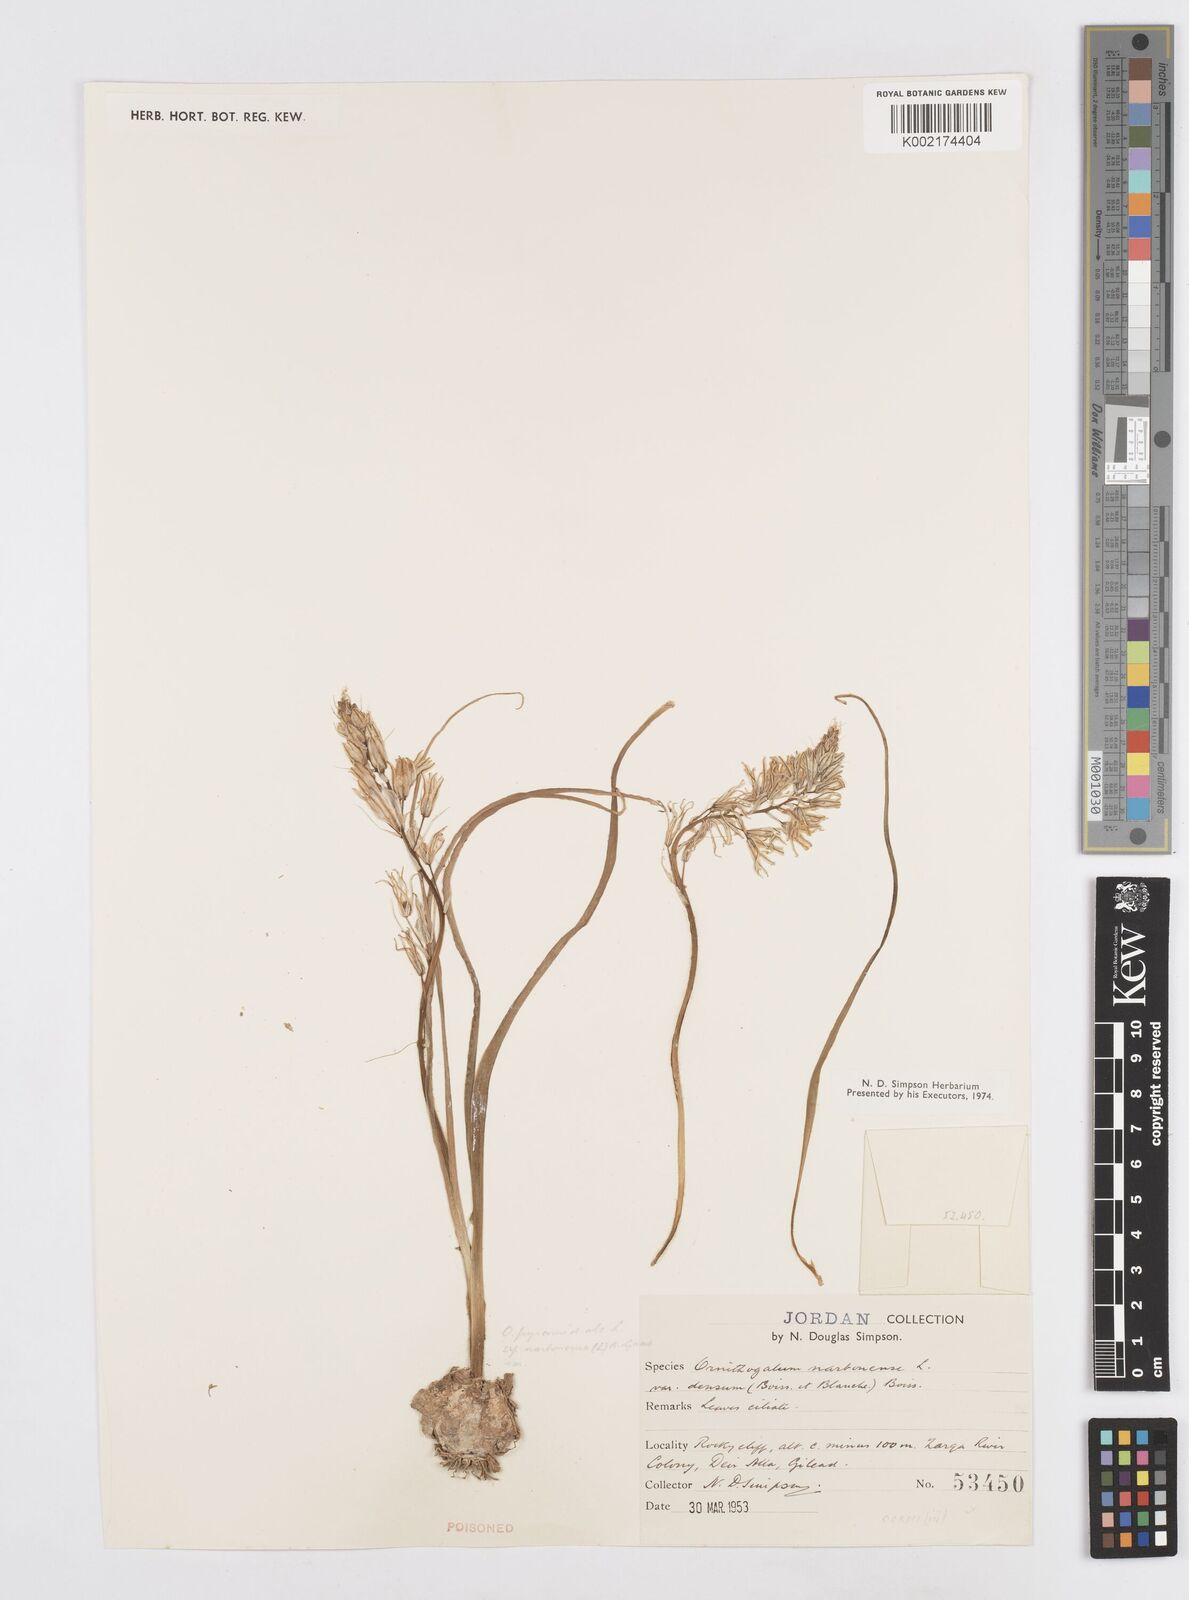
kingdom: Plantae
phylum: Tracheophyta
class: Liliopsida
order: Asparagales
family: Asparagaceae
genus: Ornithogalum
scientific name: Ornithogalum narbonense
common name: Bath-asparagus
